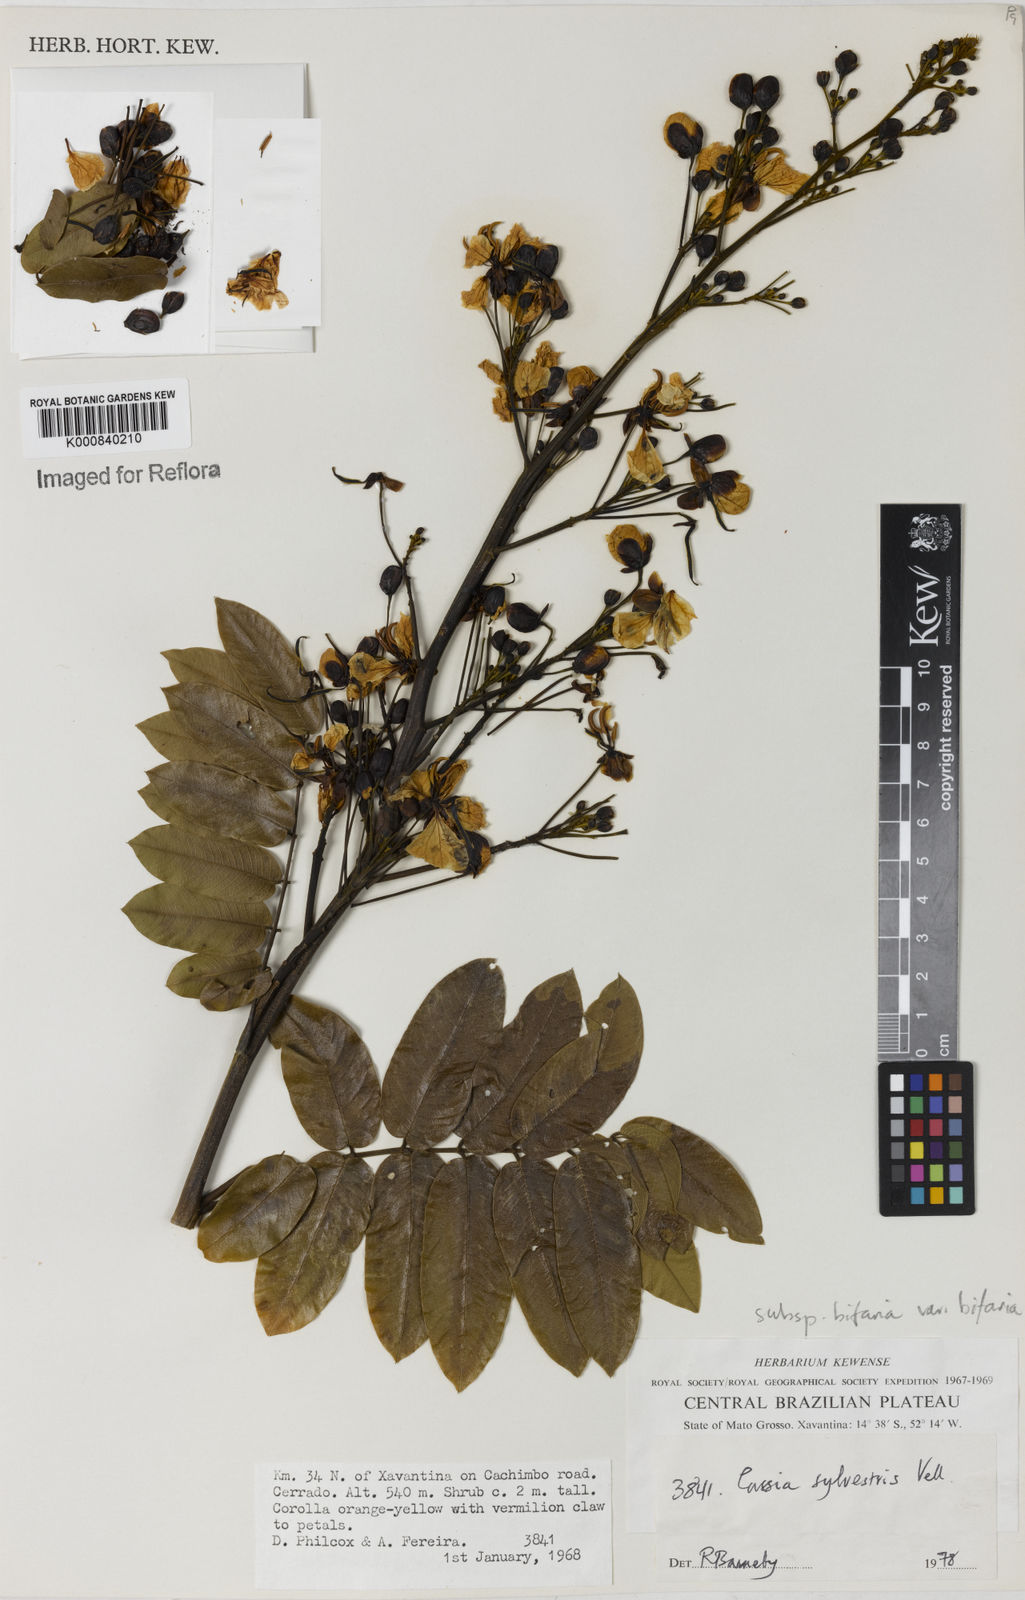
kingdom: Plantae
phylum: Tracheophyta
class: Magnoliopsida
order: Fabales
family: Fabaceae
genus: Senna
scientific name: Senna silvestris
